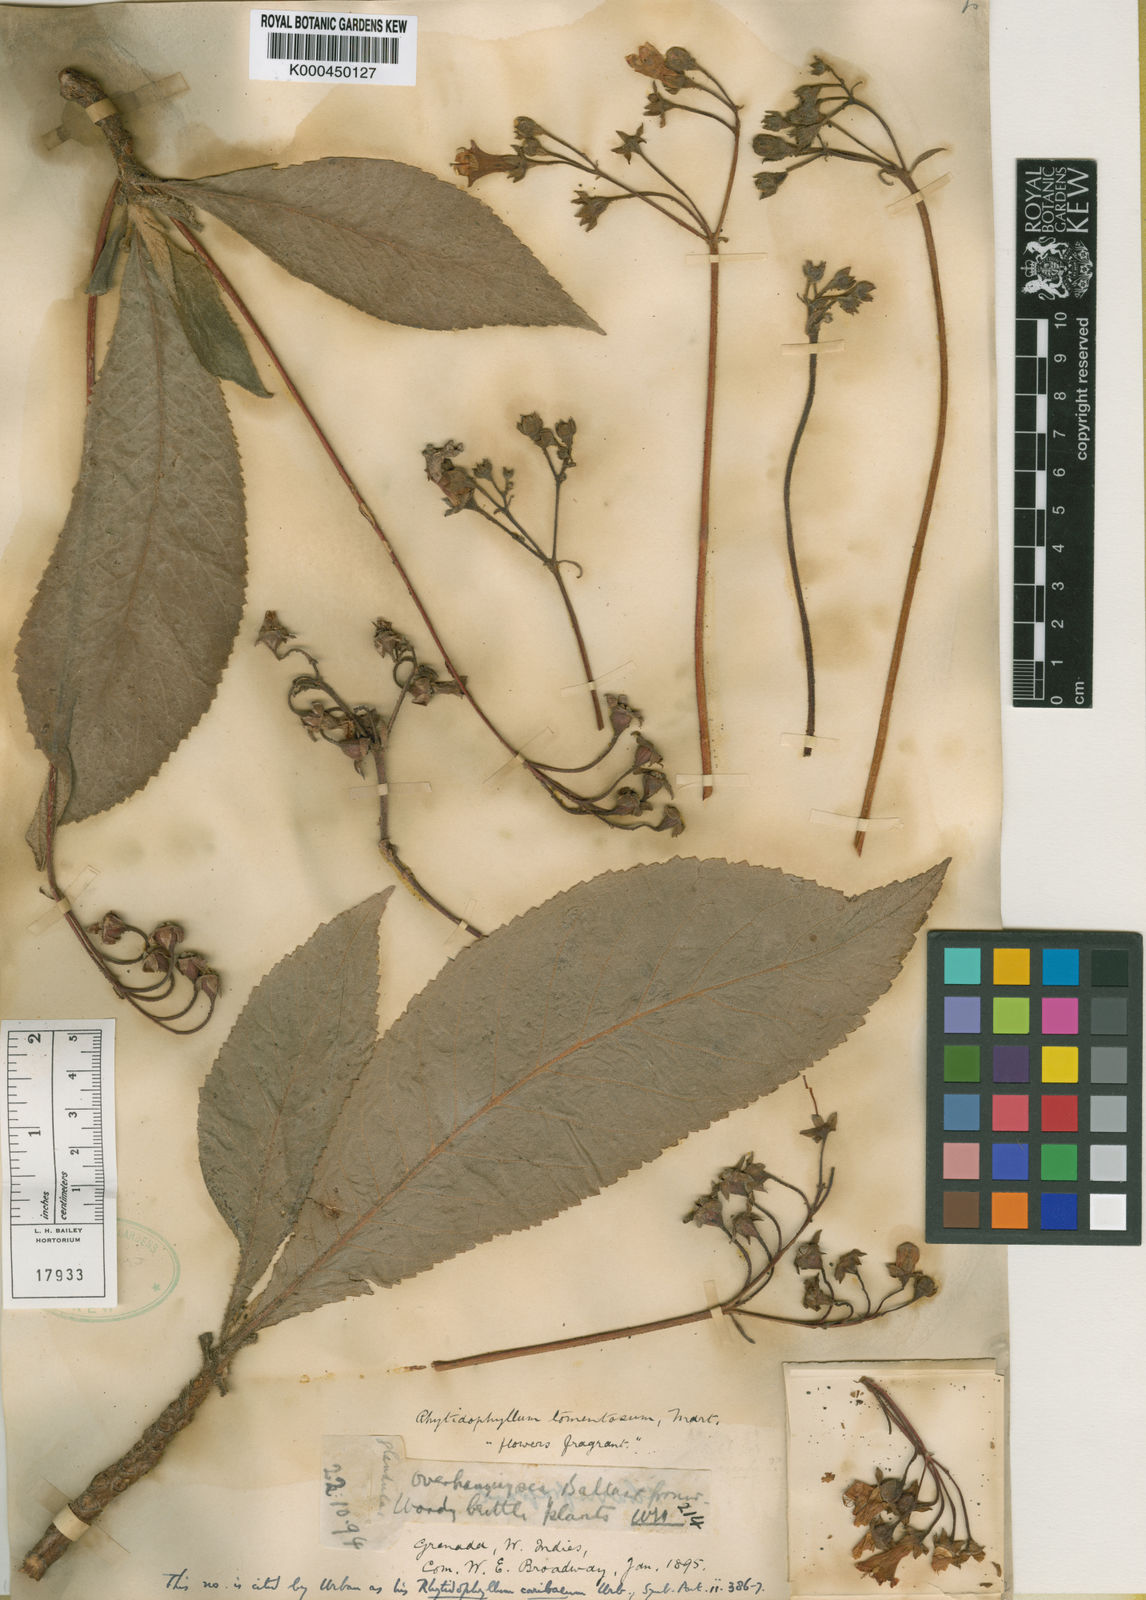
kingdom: Plantae
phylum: Tracheophyta
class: Magnoliopsida
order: Lamiales
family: Gesneriaceae
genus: Rhytidophyllum
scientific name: Rhytidophyllum caribaeum
